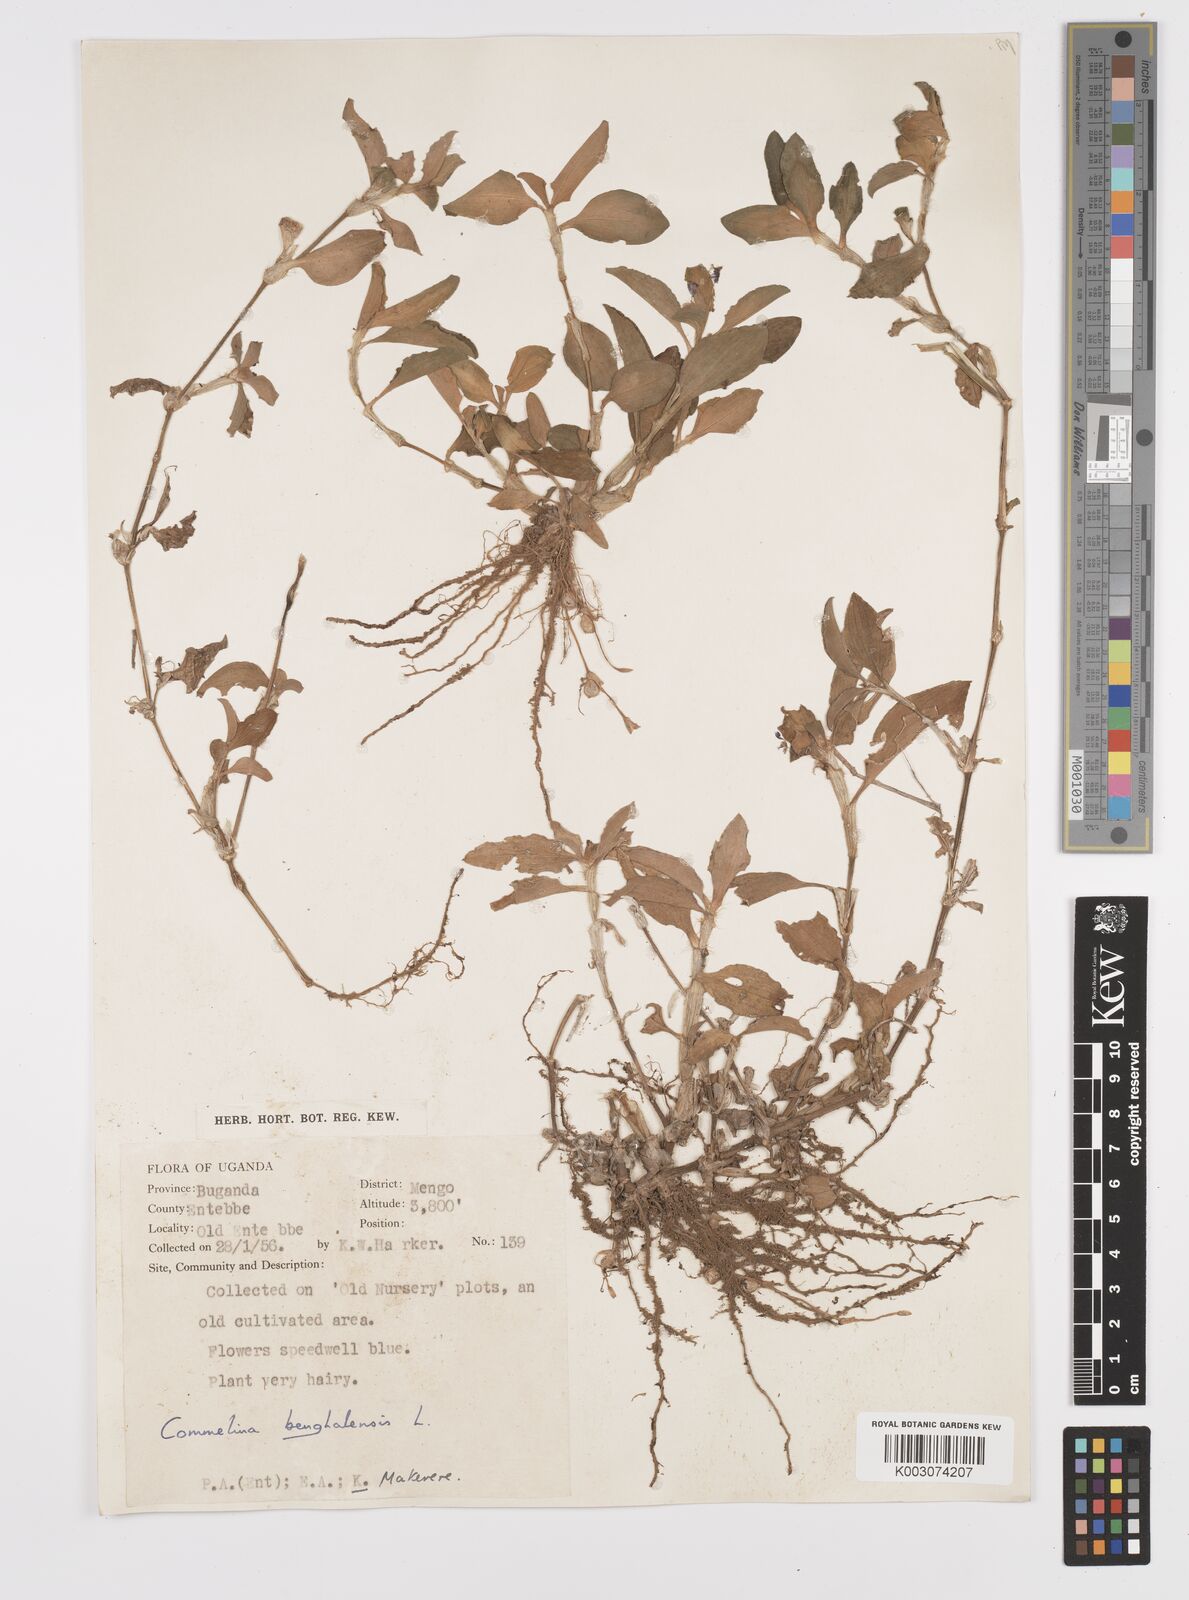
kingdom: Plantae
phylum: Tracheophyta
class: Liliopsida
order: Commelinales
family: Commelinaceae
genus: Commelina
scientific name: Commelina benghalensis
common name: Jio
